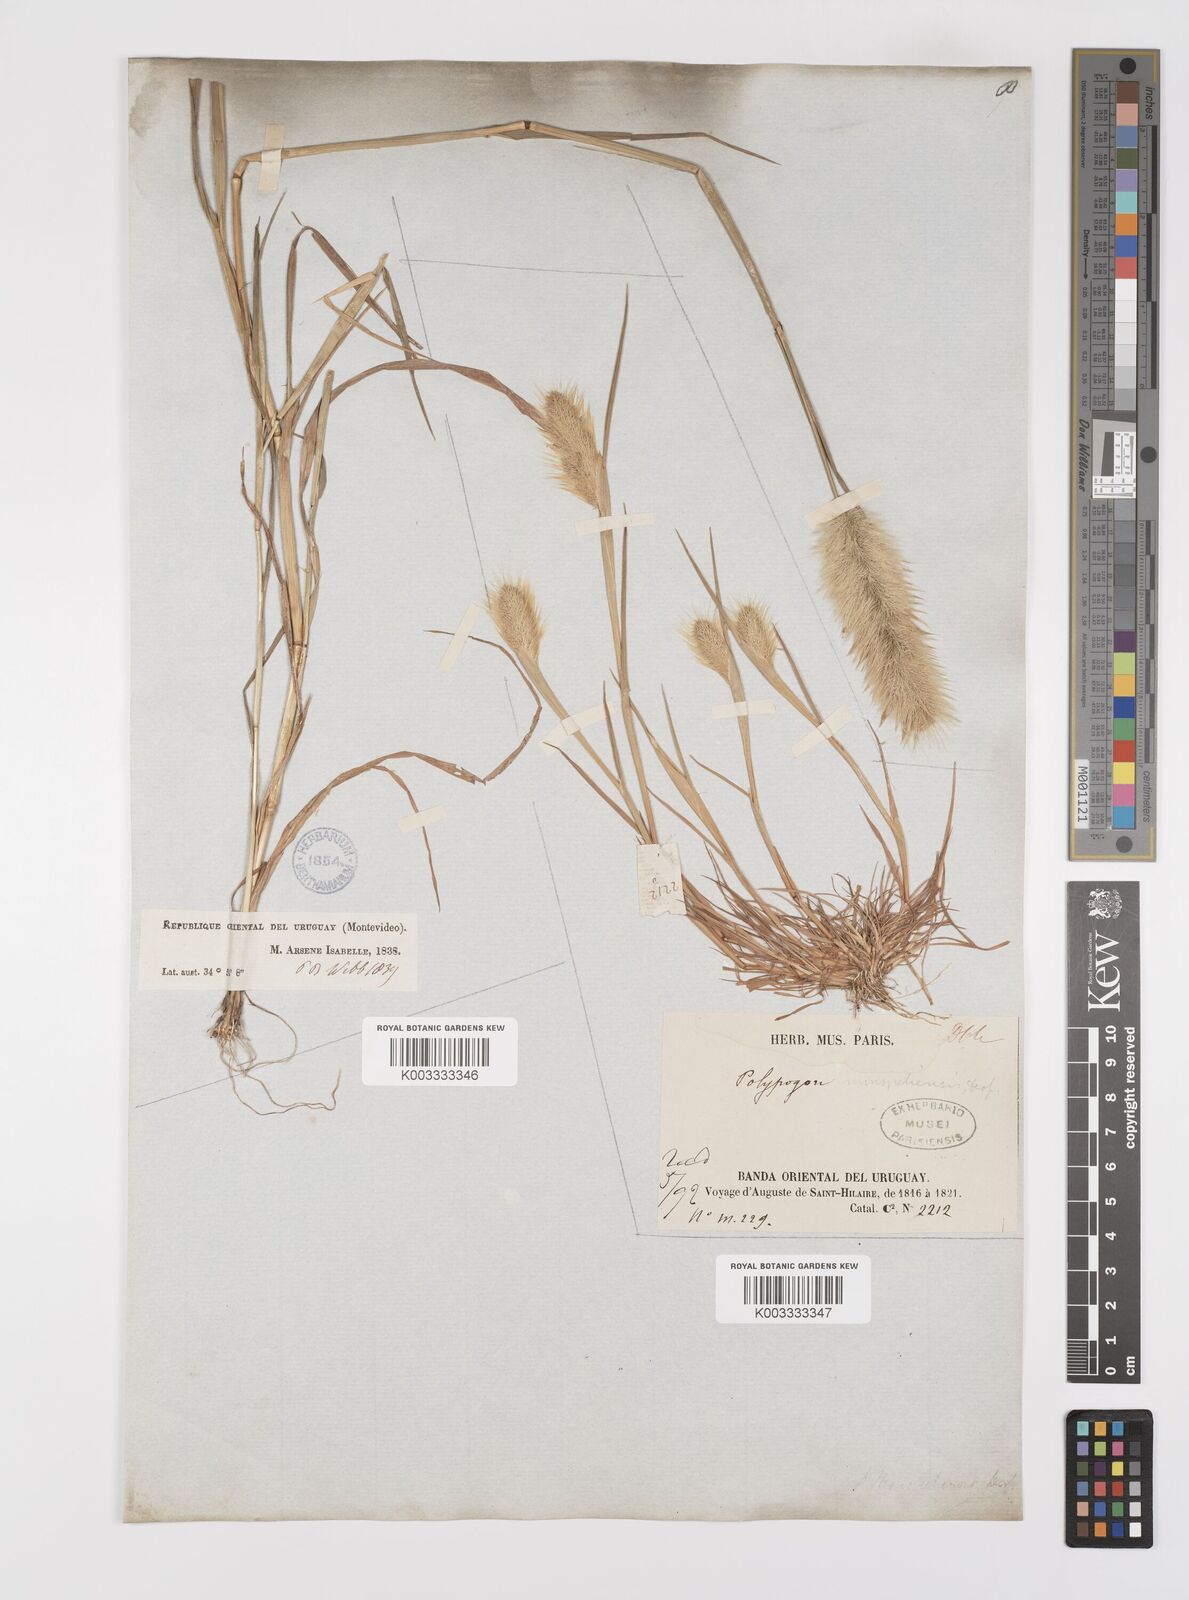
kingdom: Plantae
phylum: Tracheophyta
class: Liliopsida
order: Poales
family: Poaceae
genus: Polypogon
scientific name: Polypogon monspeliensis
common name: Annual rabbitsfoot grass
